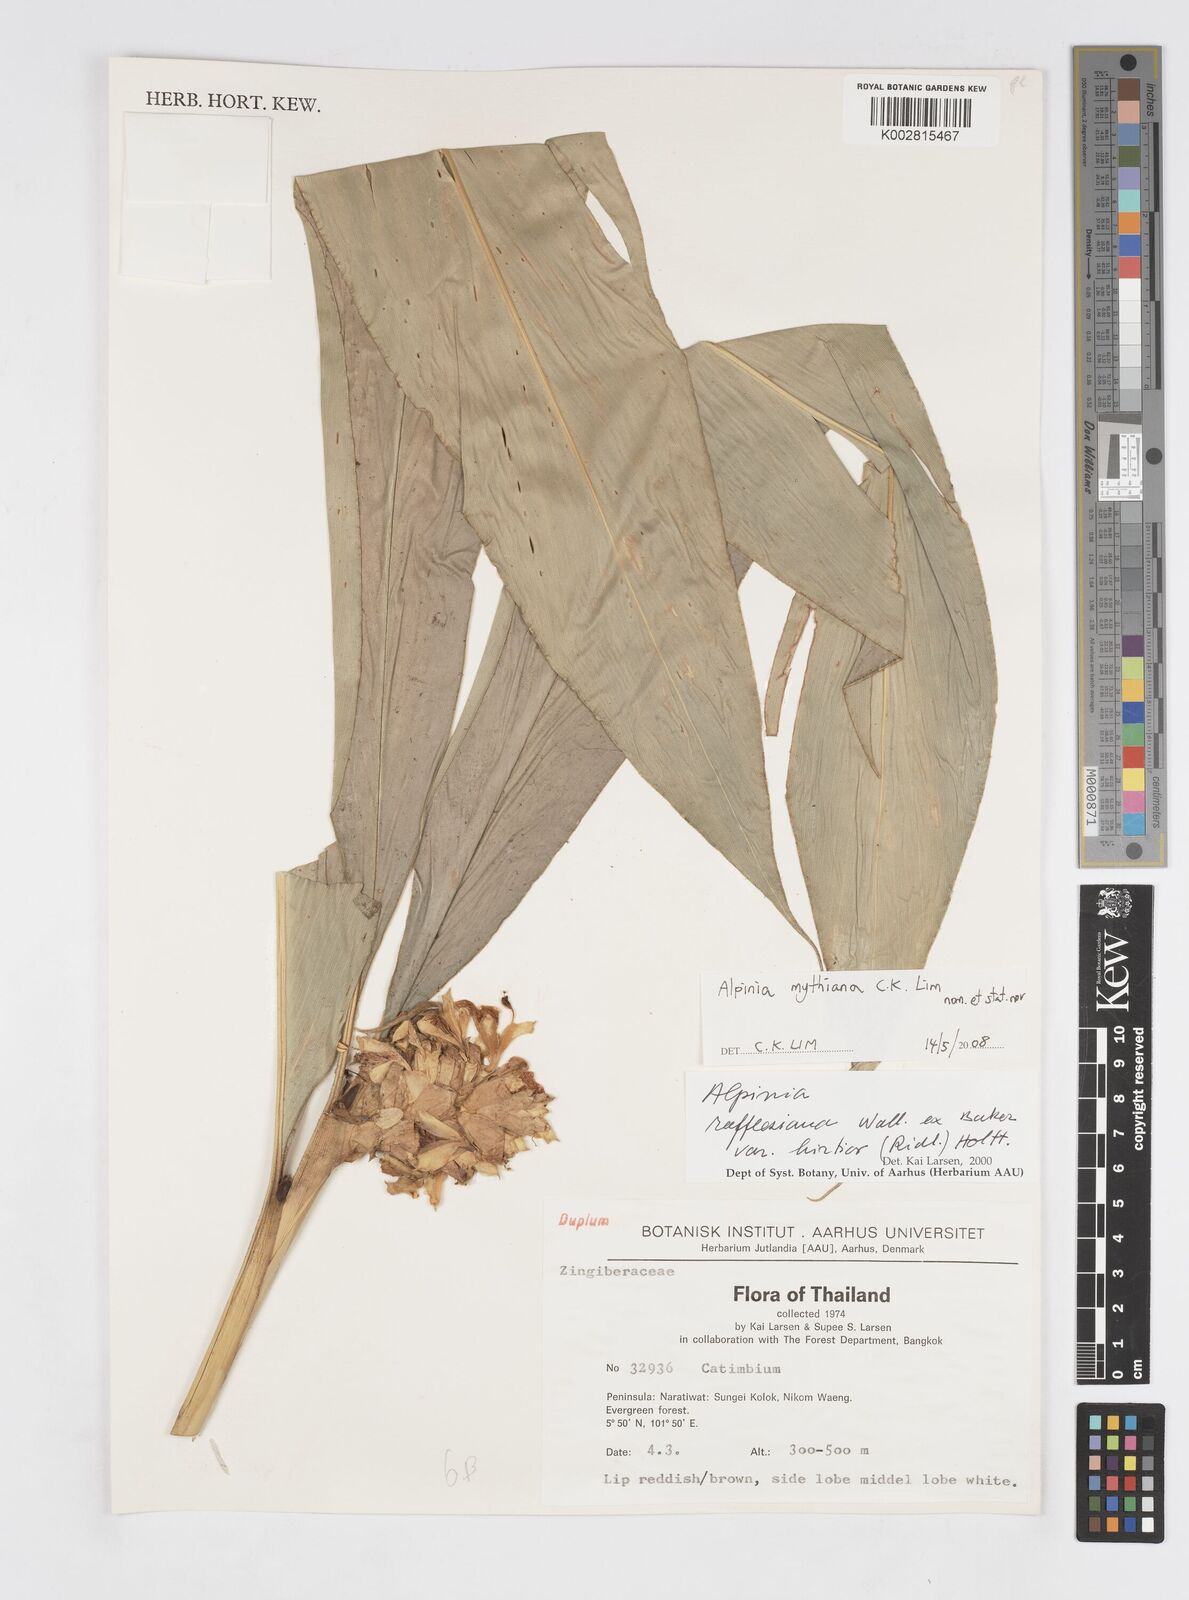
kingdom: Plantae
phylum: Tracheophyta
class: Liliopsida
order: Zingiberales
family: Zingiberaceae
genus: Alpinia
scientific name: Alpinia rafflesiana
